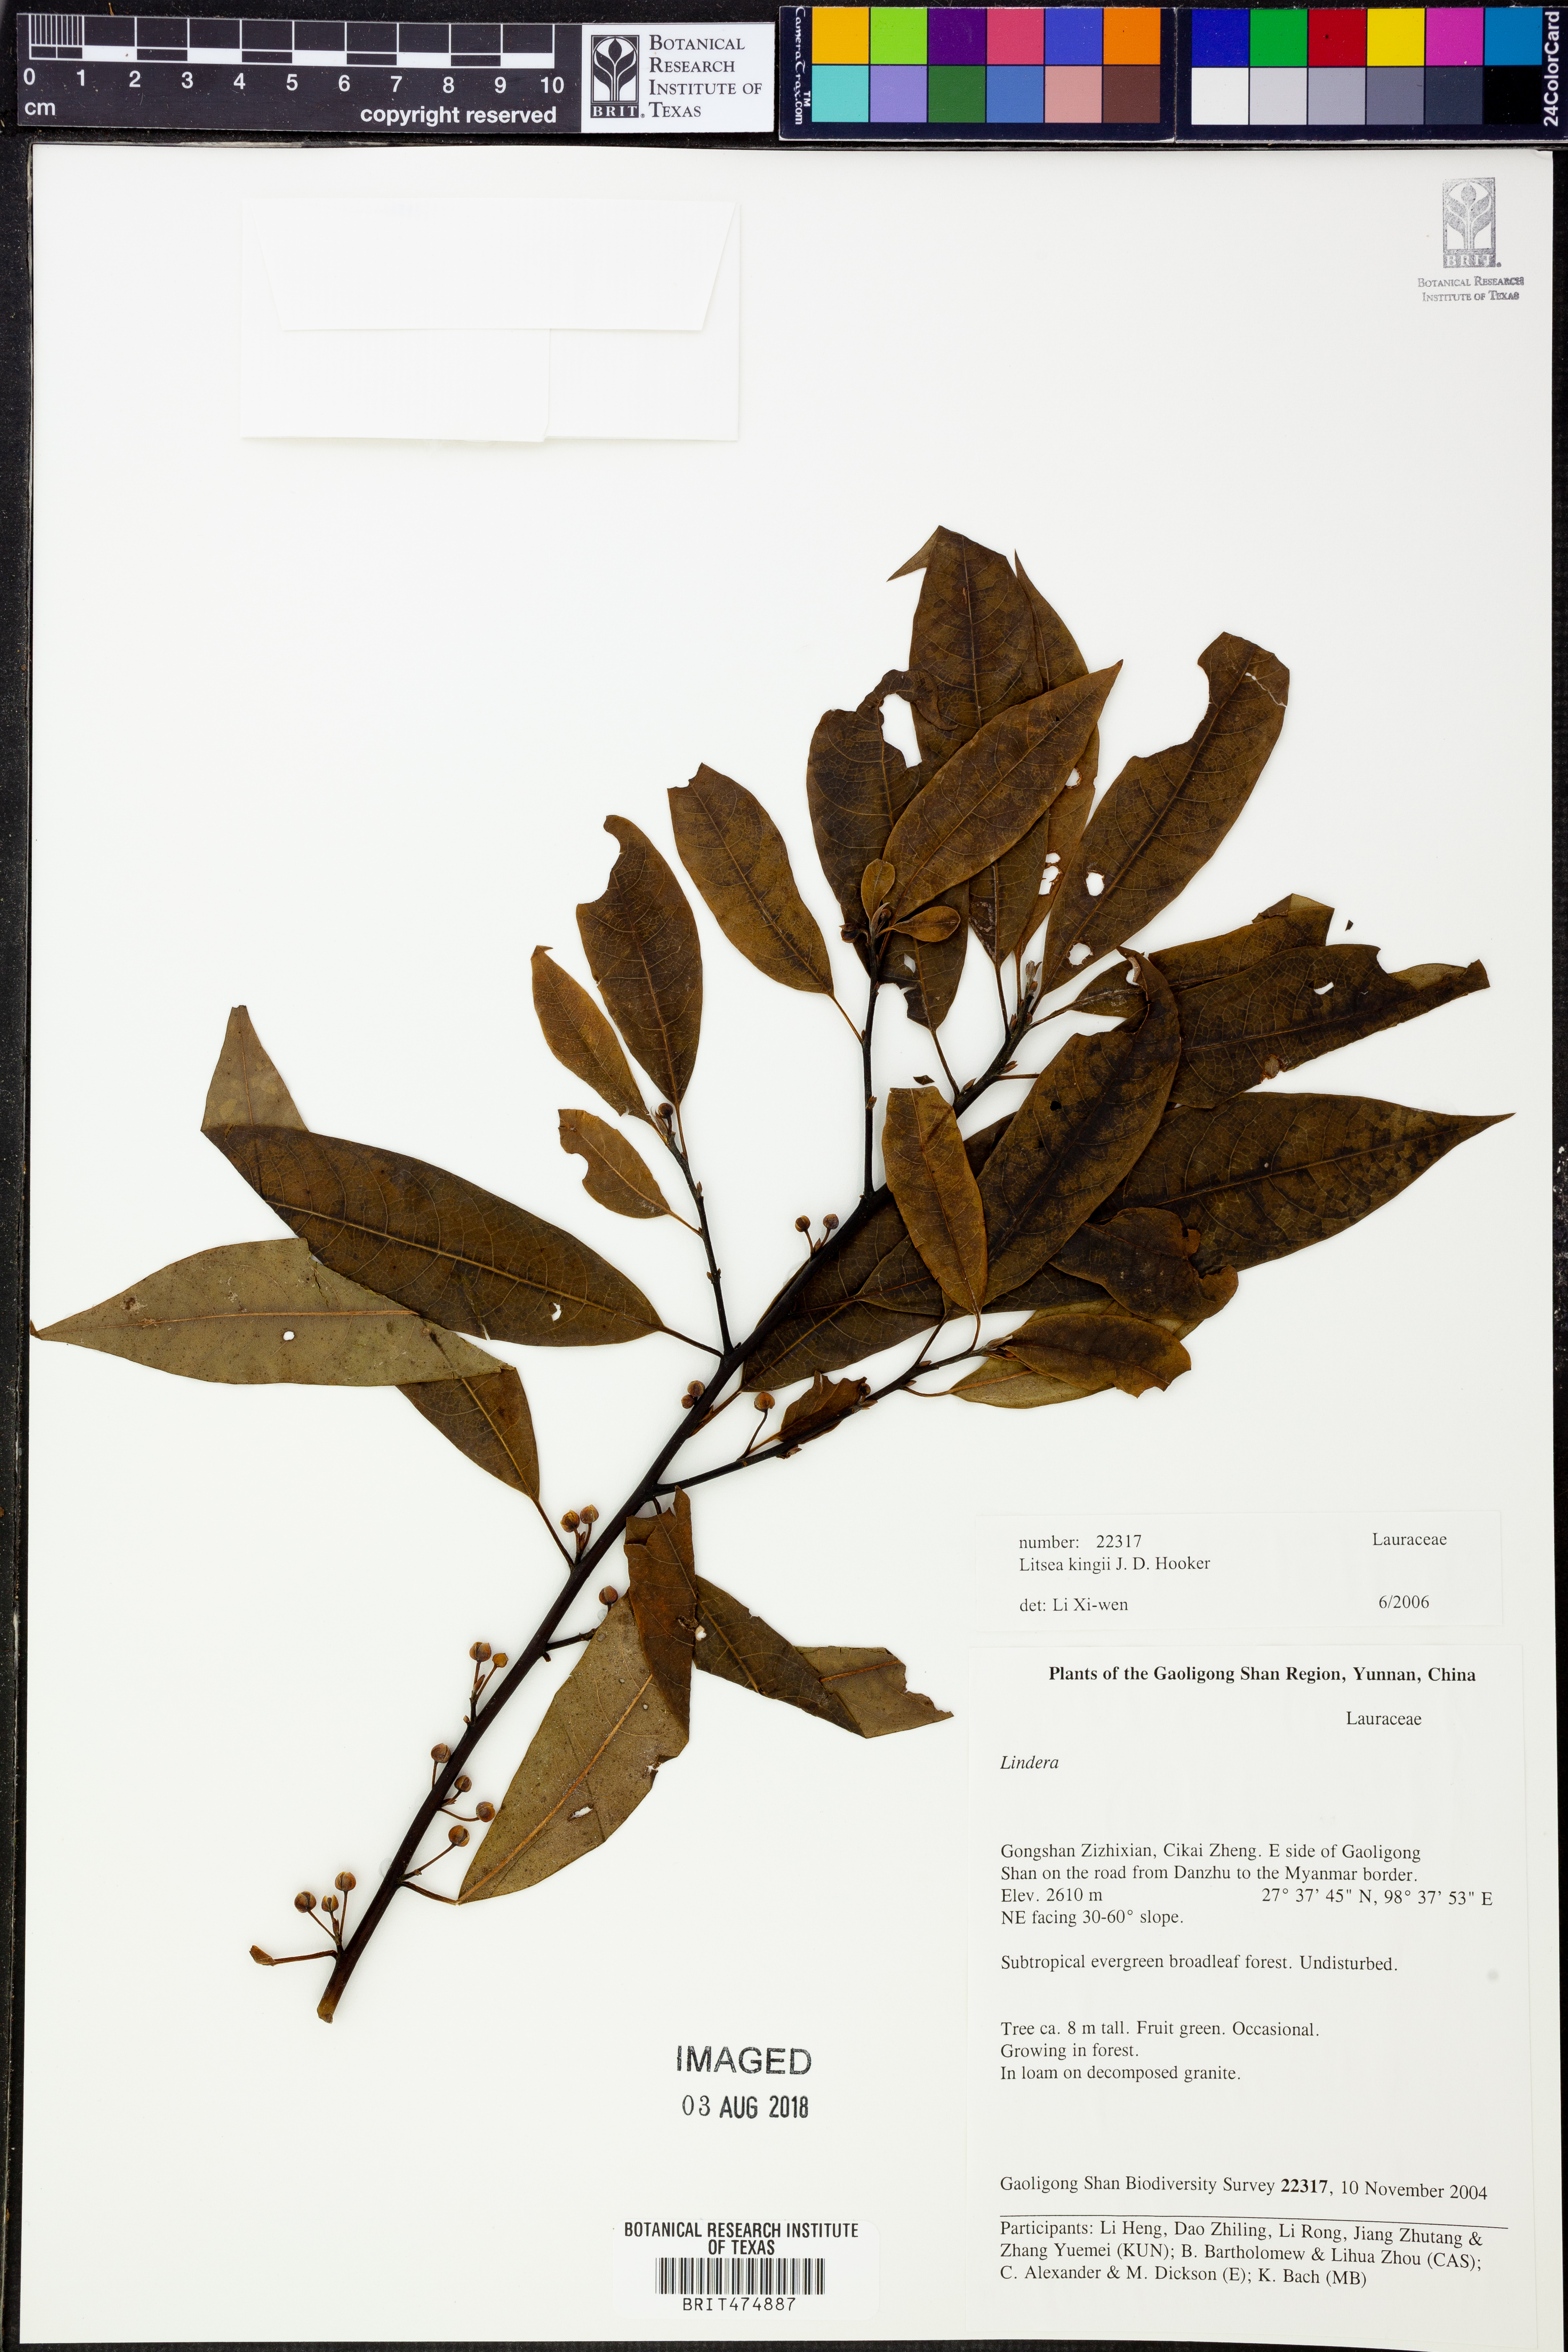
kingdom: Plantae
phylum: Tracheophyta
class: Magnoliopsida
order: Laurales
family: Lauraceae
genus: Litsea
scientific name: Litsea kingii
